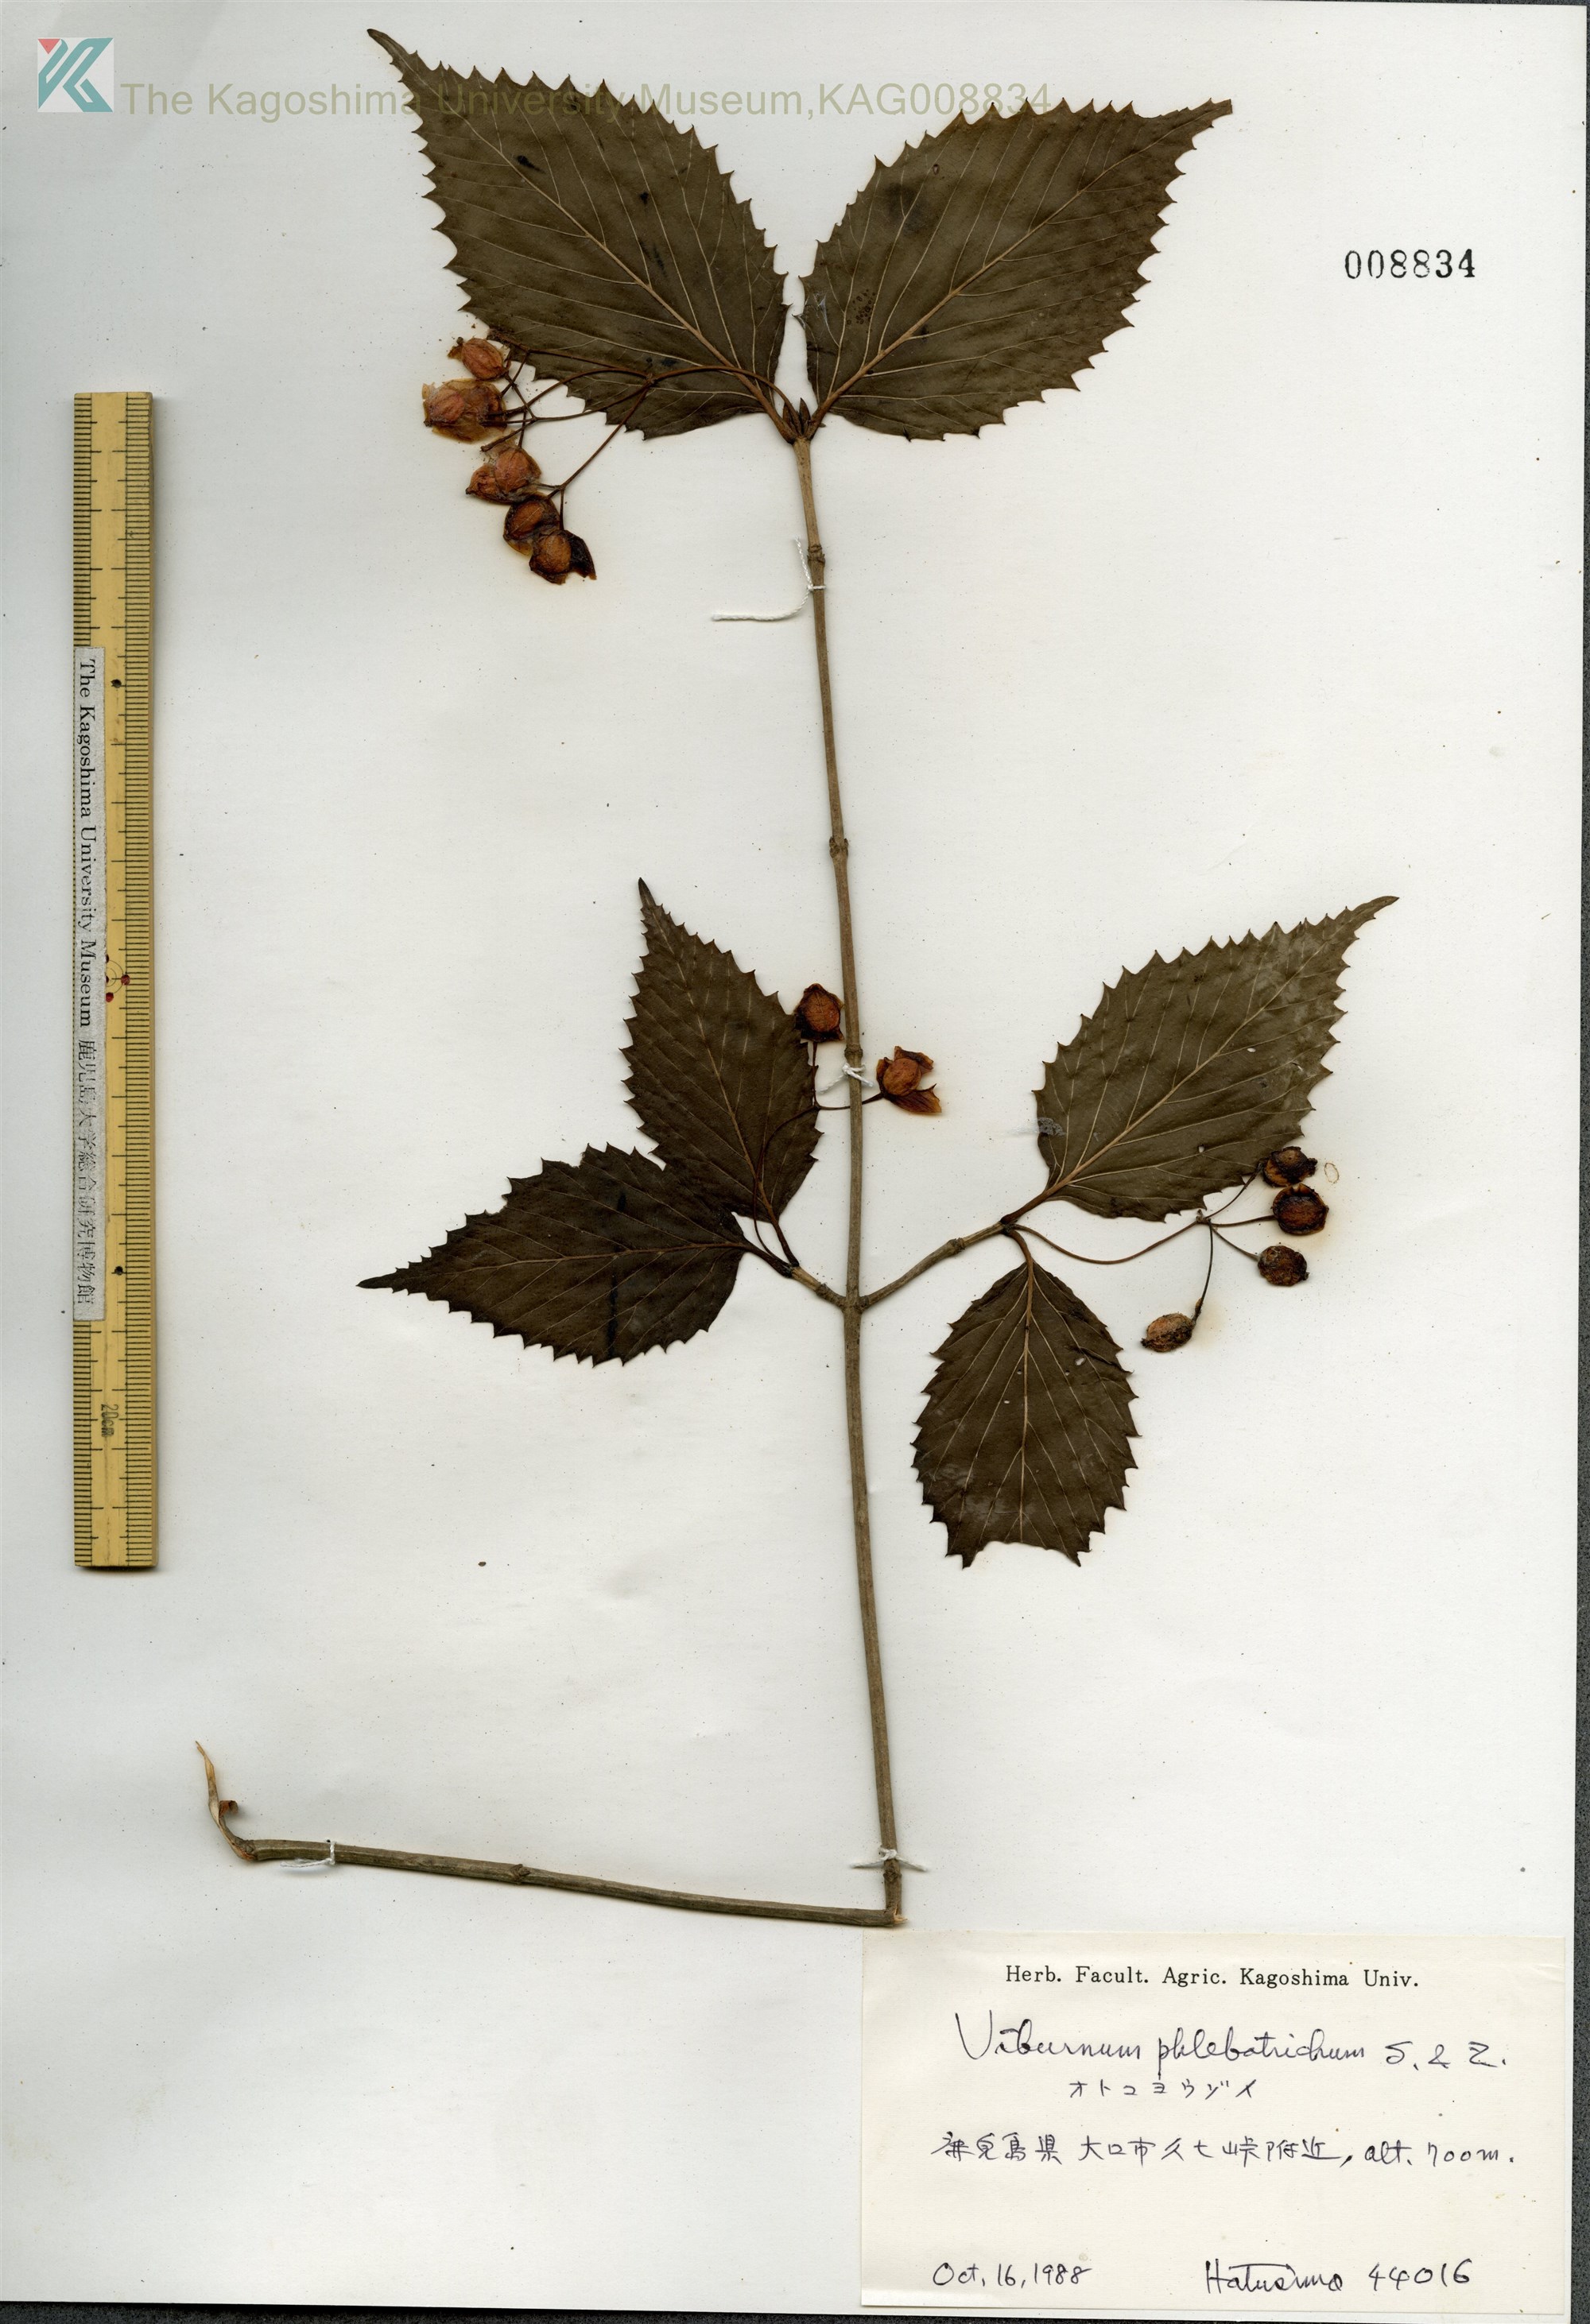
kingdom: Plantae
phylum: Tracheophyta
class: Magnoliopsida
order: Dipsacales
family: Viburnaceae
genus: Viburnum
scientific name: Viburnum phlebotrichum
